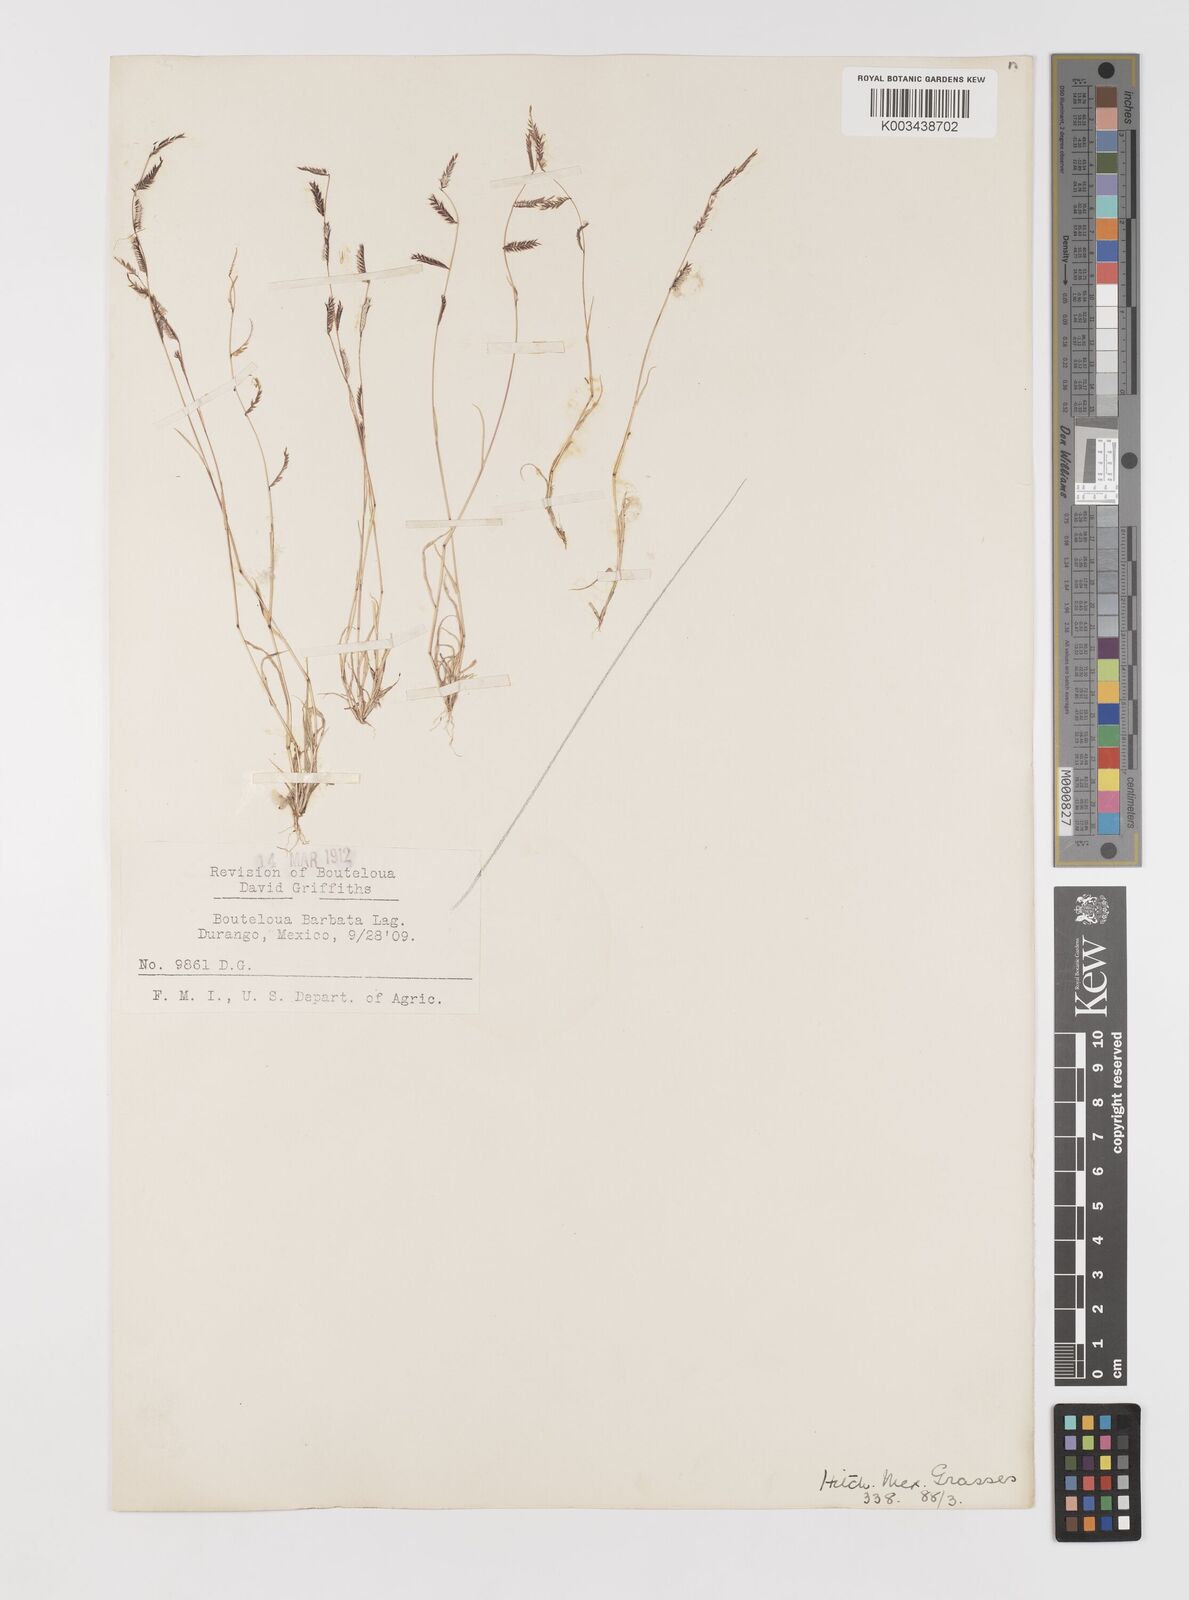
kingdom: Plantae
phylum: Tracheophyta
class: Liliopsida
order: Poales
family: Poaceae
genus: Bouteloua
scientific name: Bouteloua
